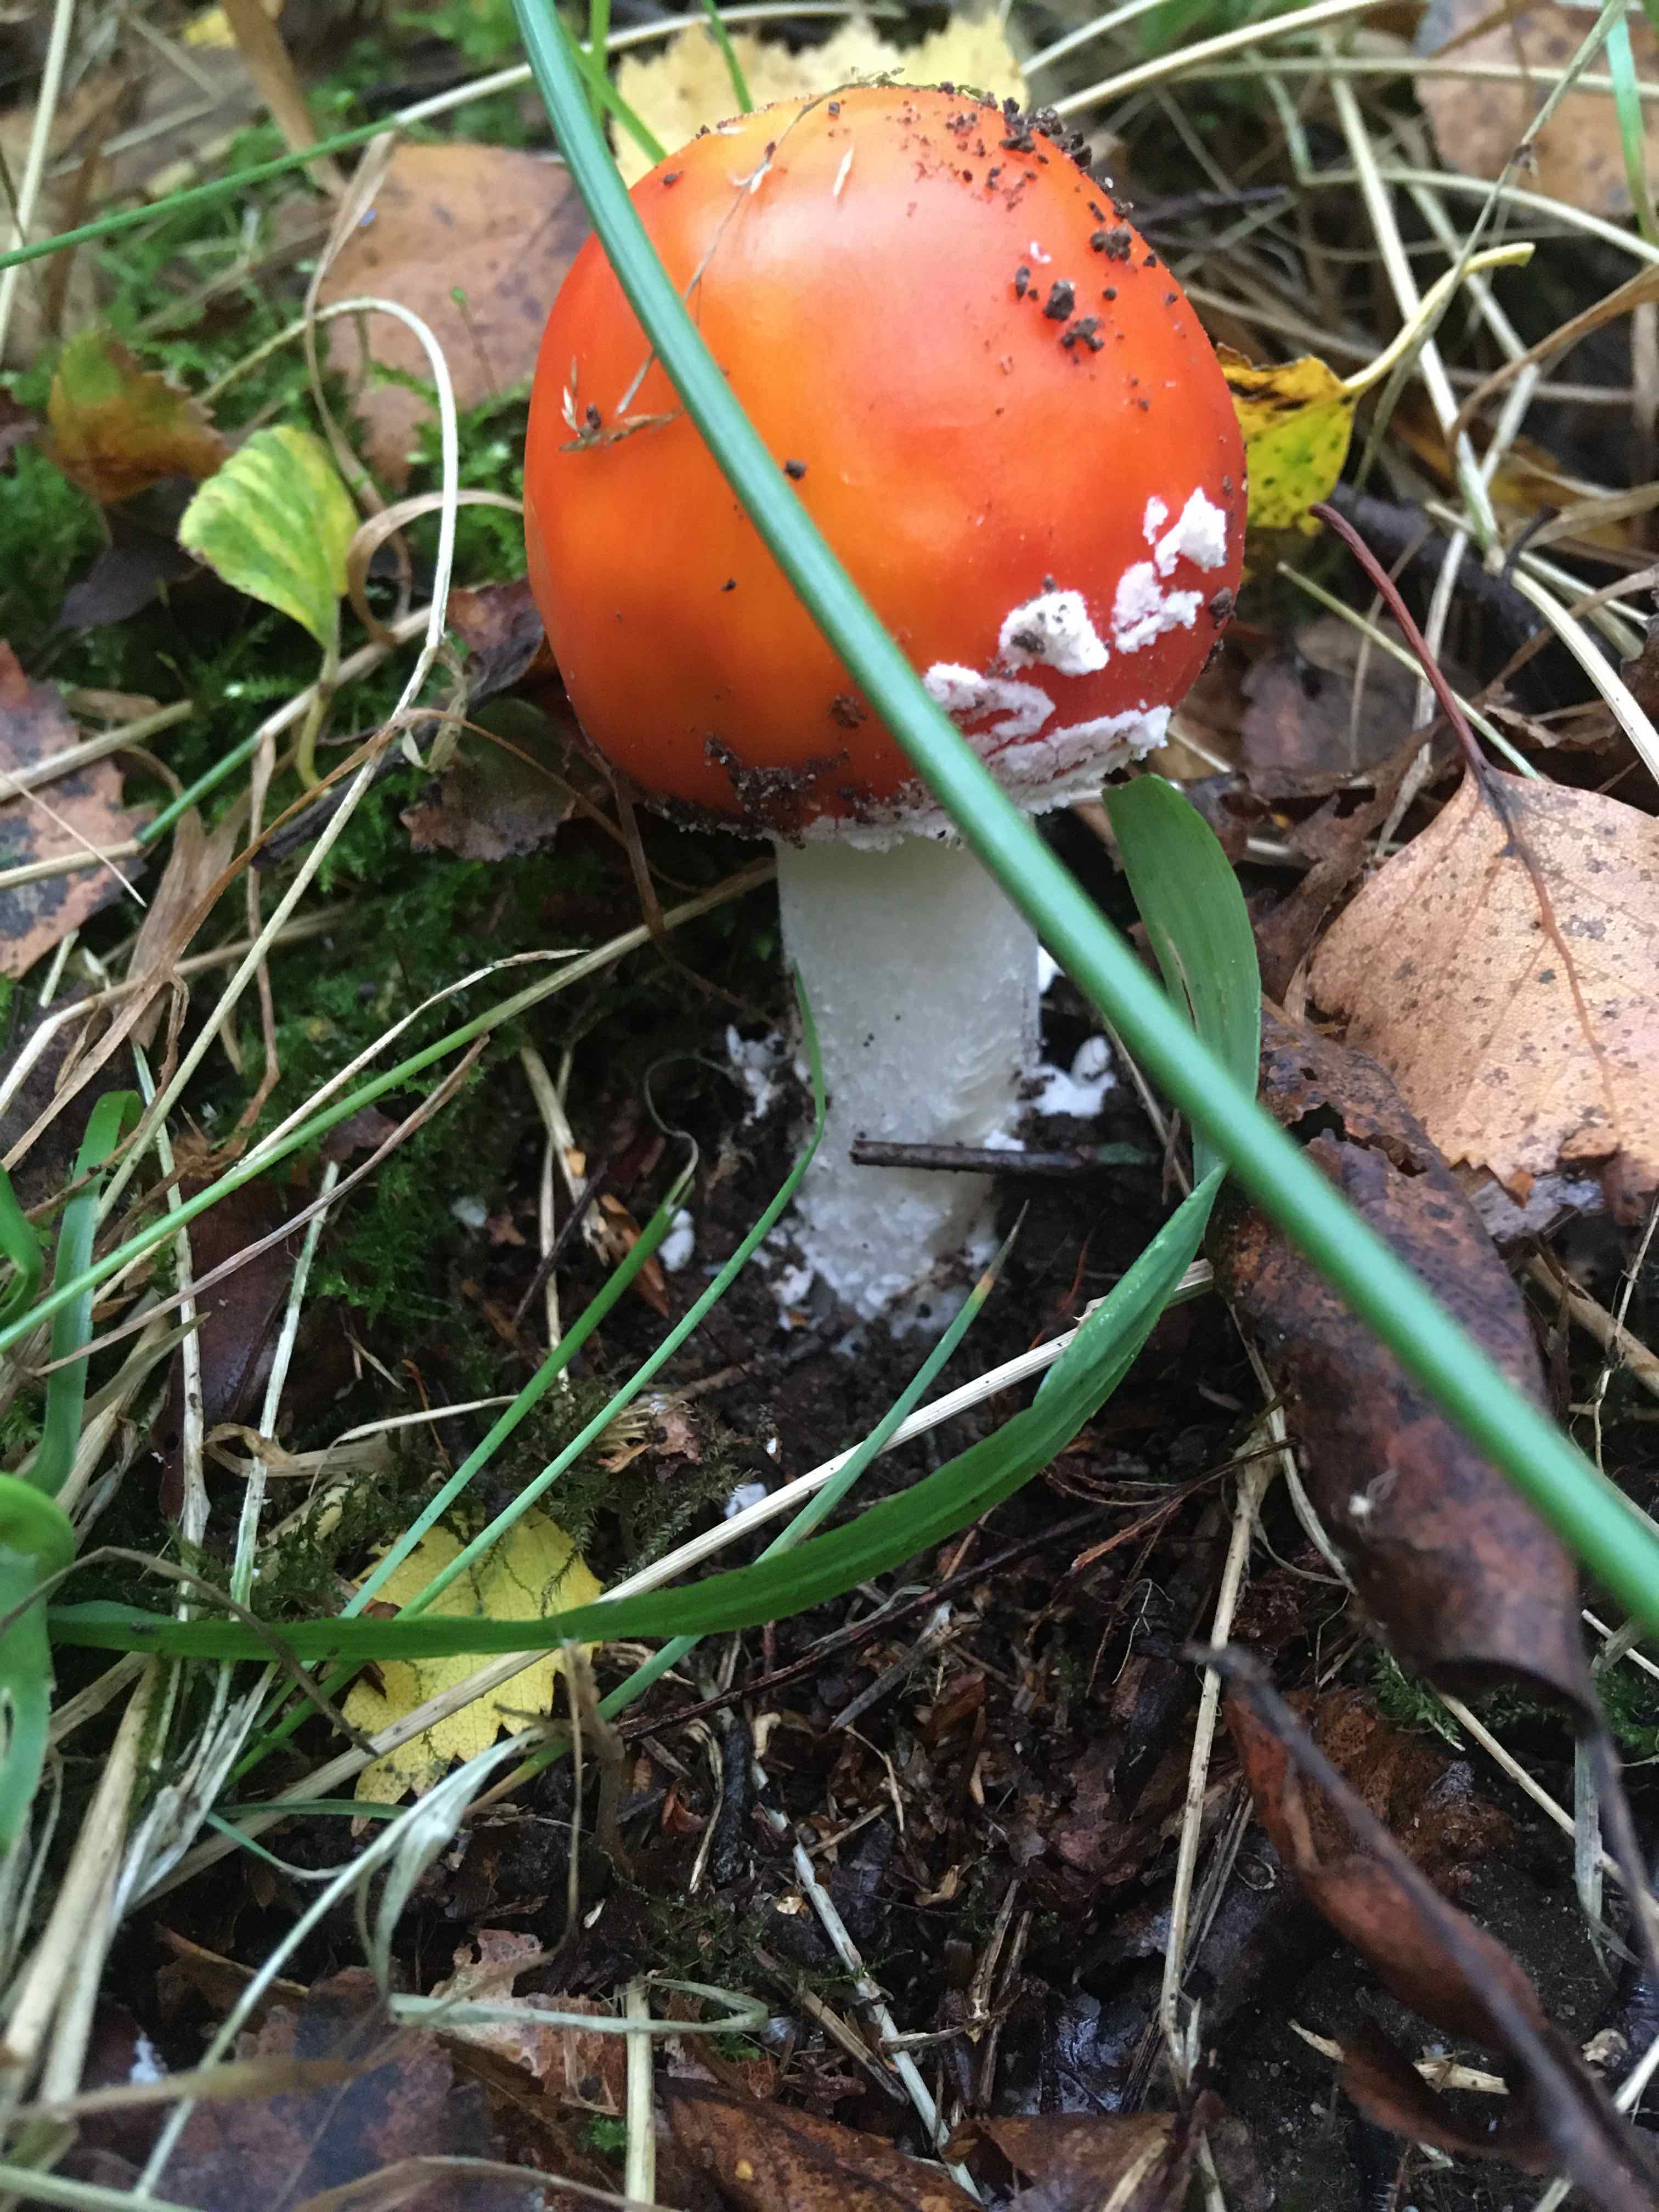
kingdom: Fungi
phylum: Basidiomycota
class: Agaricomycetes
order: Agaricales
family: Amanitaceae
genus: Amanita
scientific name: Amanita muscaria
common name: rød fluesvamp
